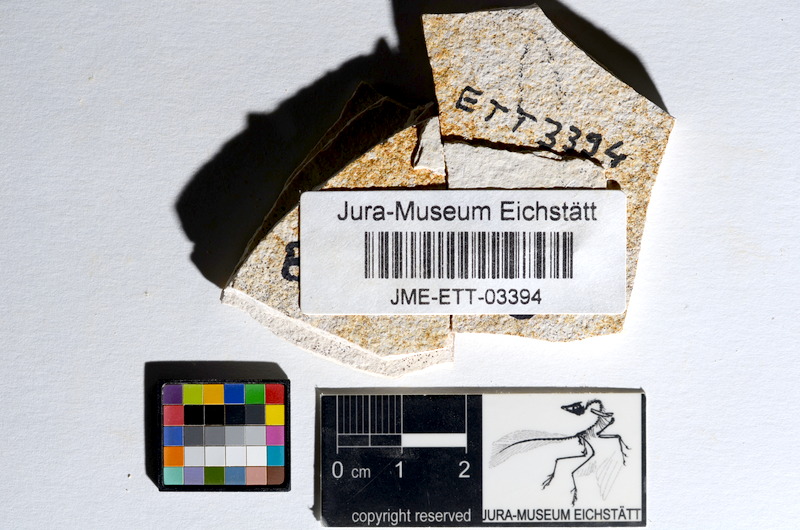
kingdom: Animalia
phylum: Chordata
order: Salmoniformes
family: Orthogonikleithridae
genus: Orthogonikleithrus
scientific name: Orthogonikleithrus hoelli
